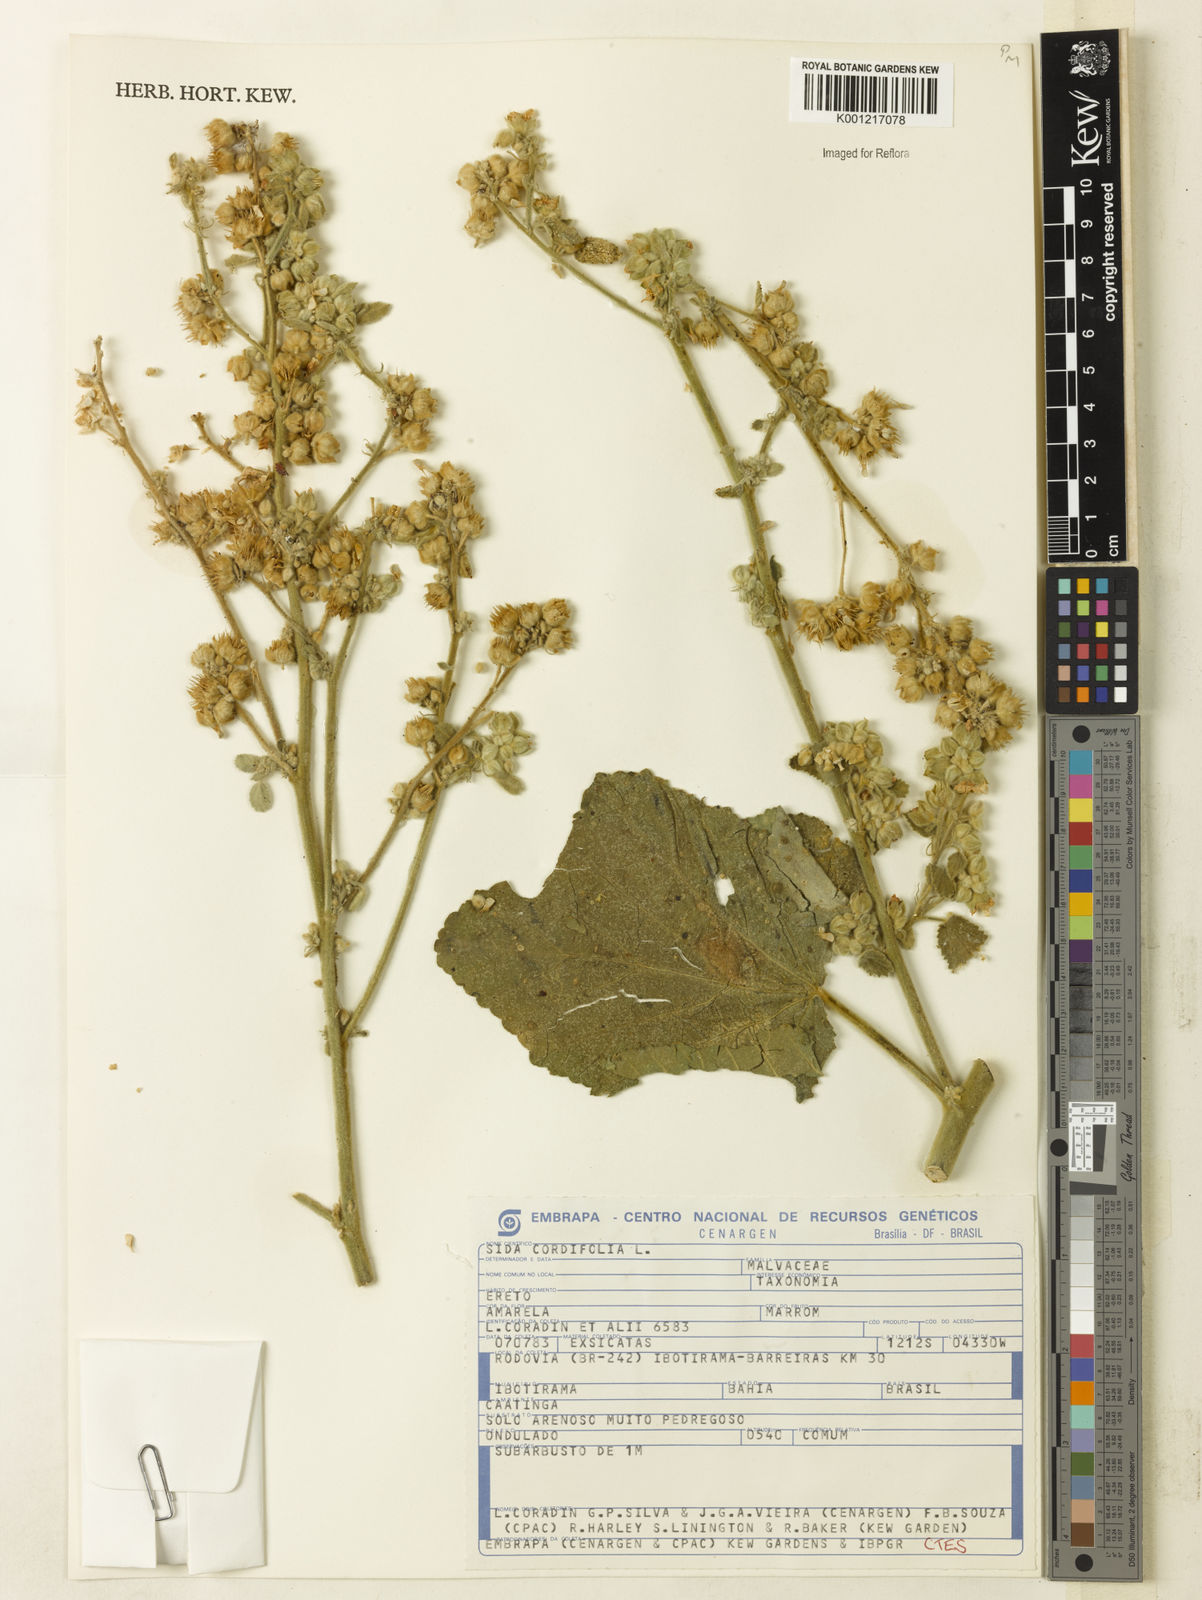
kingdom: Plantae
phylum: Tracheophyta
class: Magnoliopsida
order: Malvales
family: Malvaceae
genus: Sida
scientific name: Sida cordifolia
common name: Ilima
